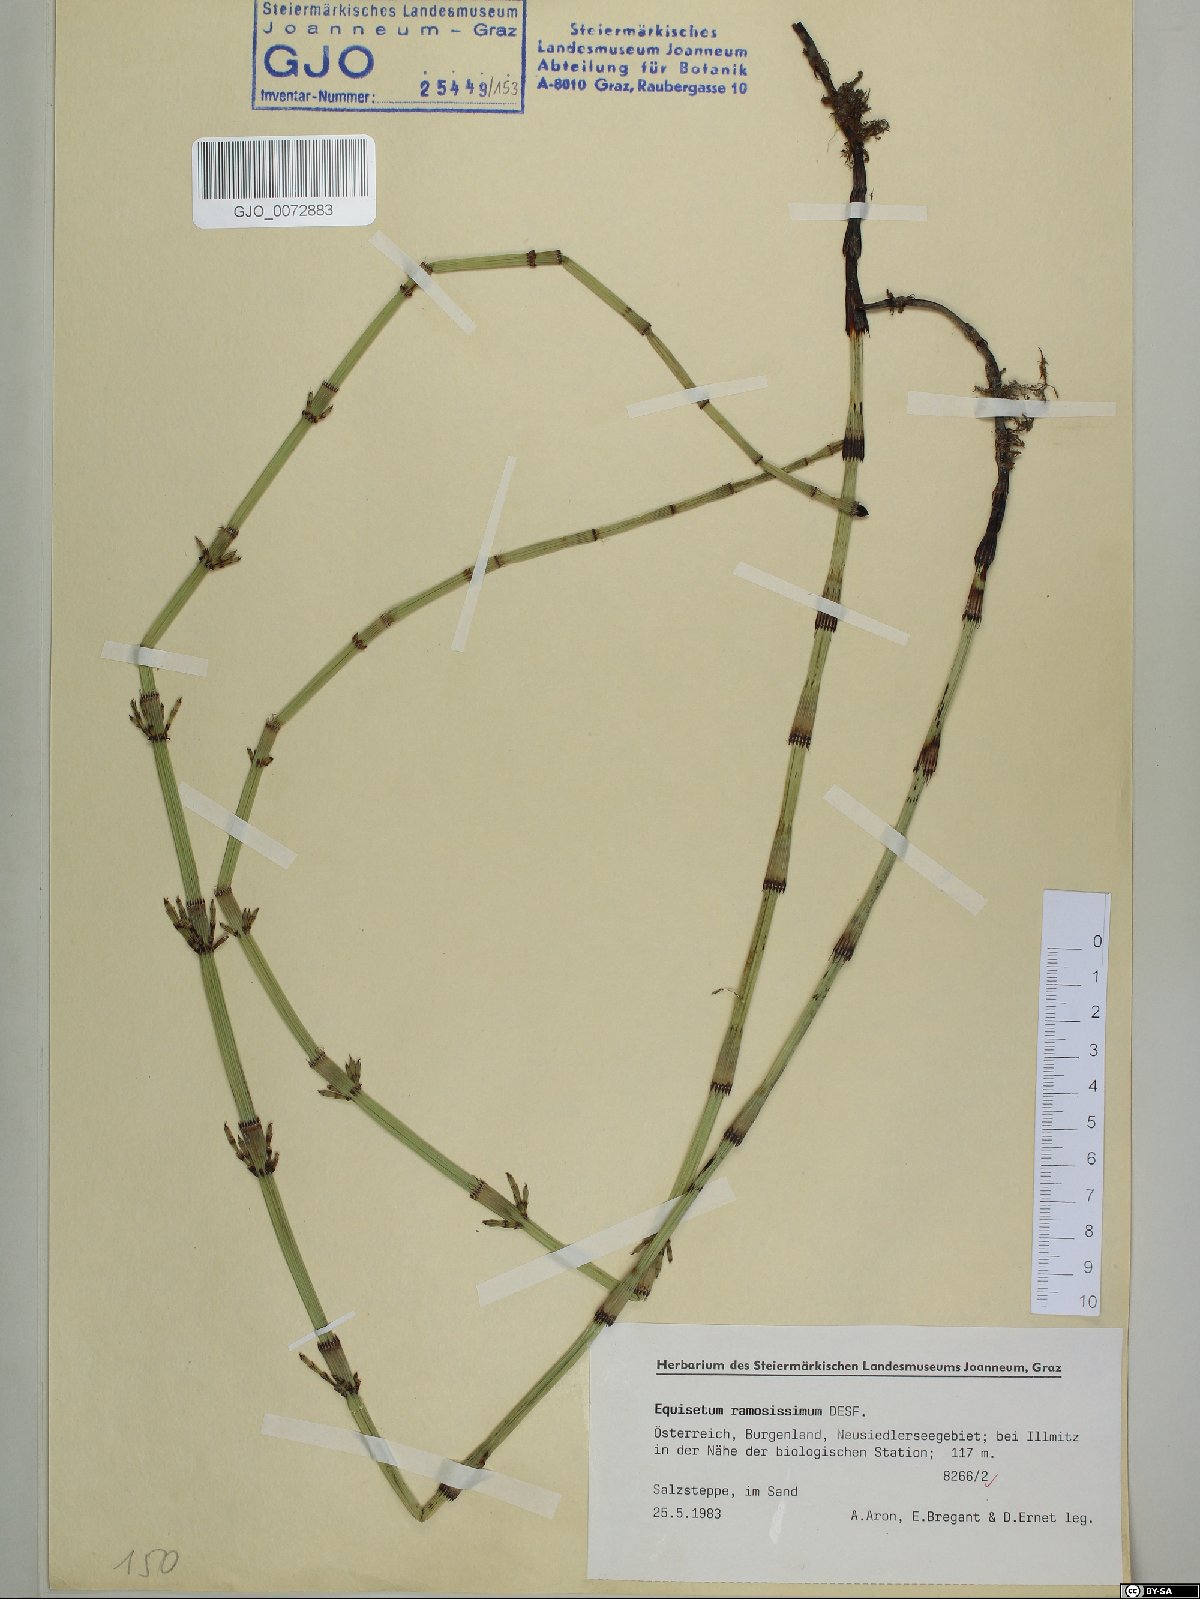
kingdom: Plantae
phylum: Tracheophyta
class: Polypodiopsida
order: Equisetales
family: Equisetaceae
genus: Equisetum
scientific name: Equisetum ramosissimum
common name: Branched horsetail
